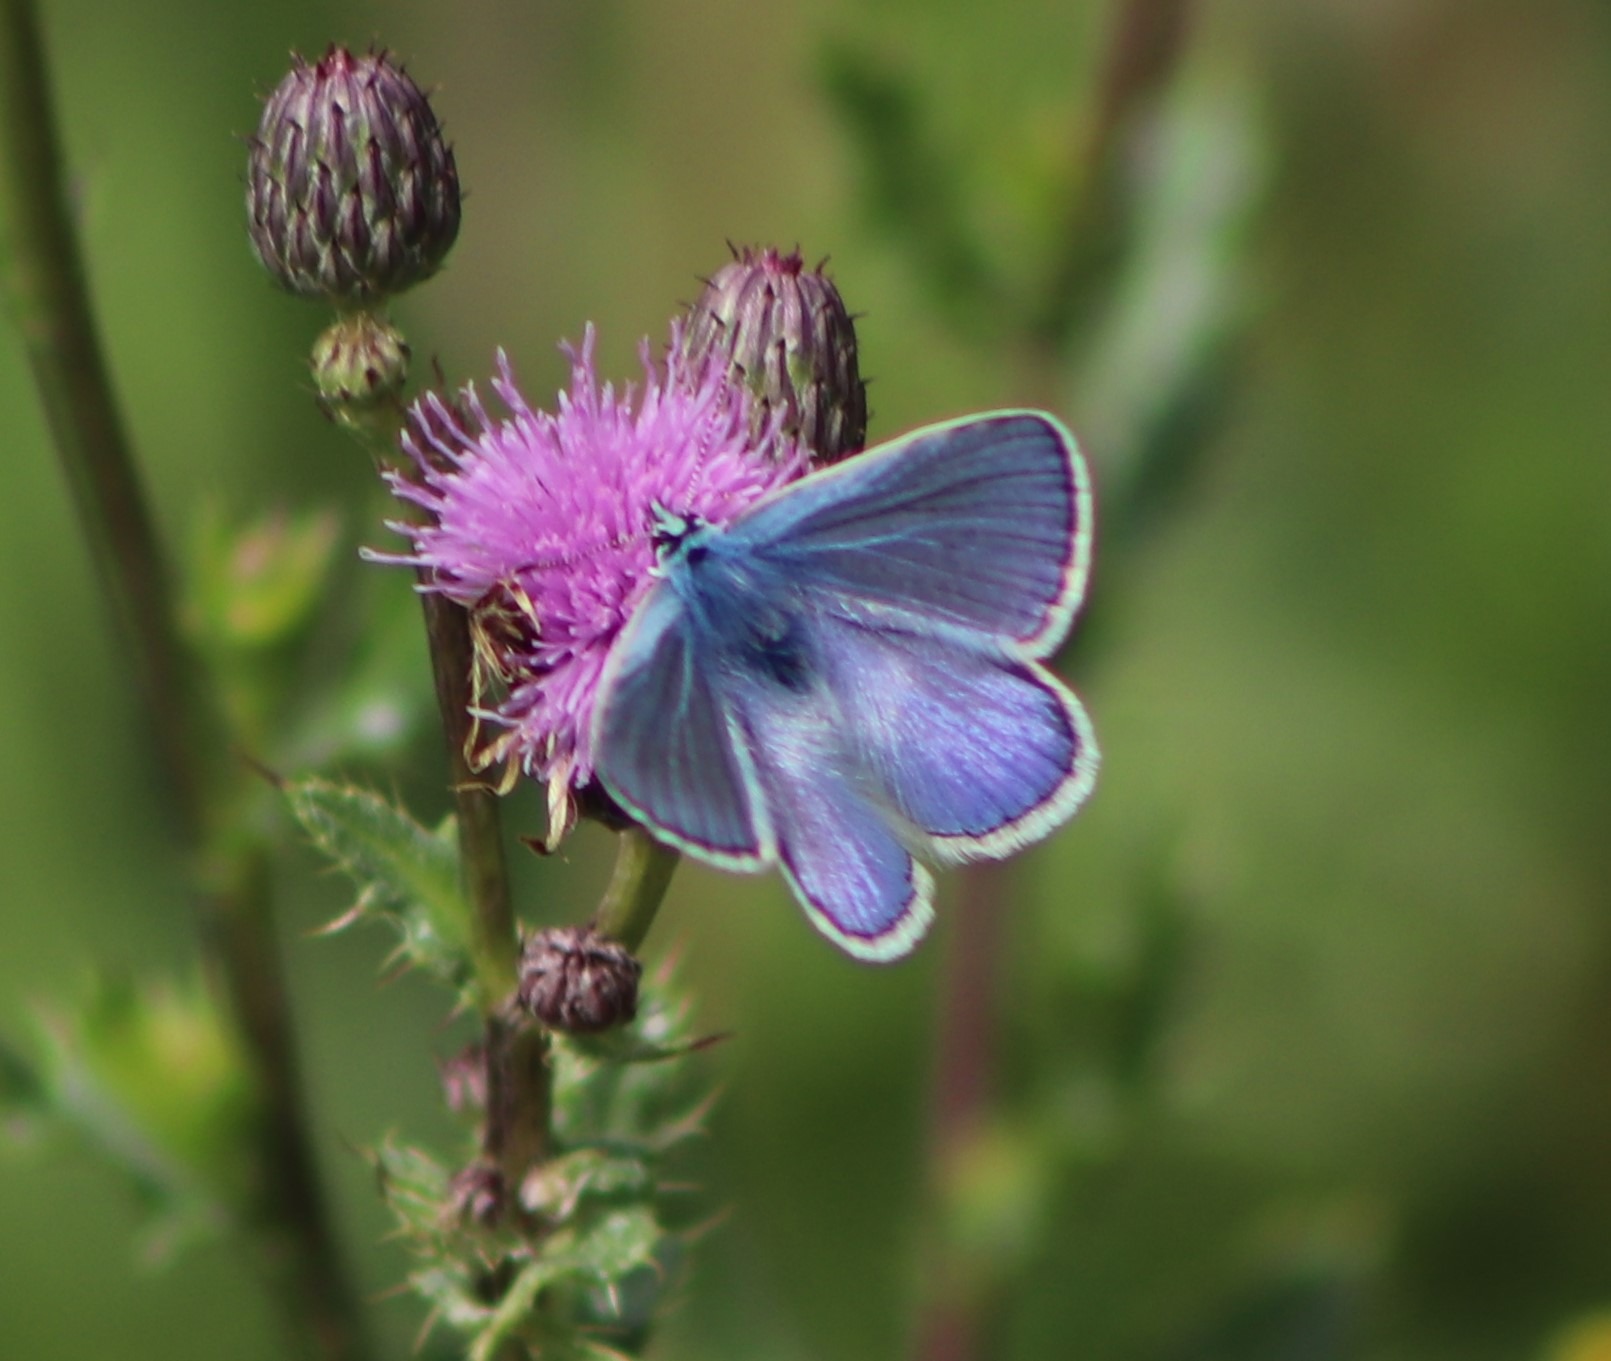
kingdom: Animalia
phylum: Arthropoda
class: Insecta
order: Lepidoptera
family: Lycaenidae
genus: Polyommatus
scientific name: Polyommatus icarus
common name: Almindelig blåfugl
